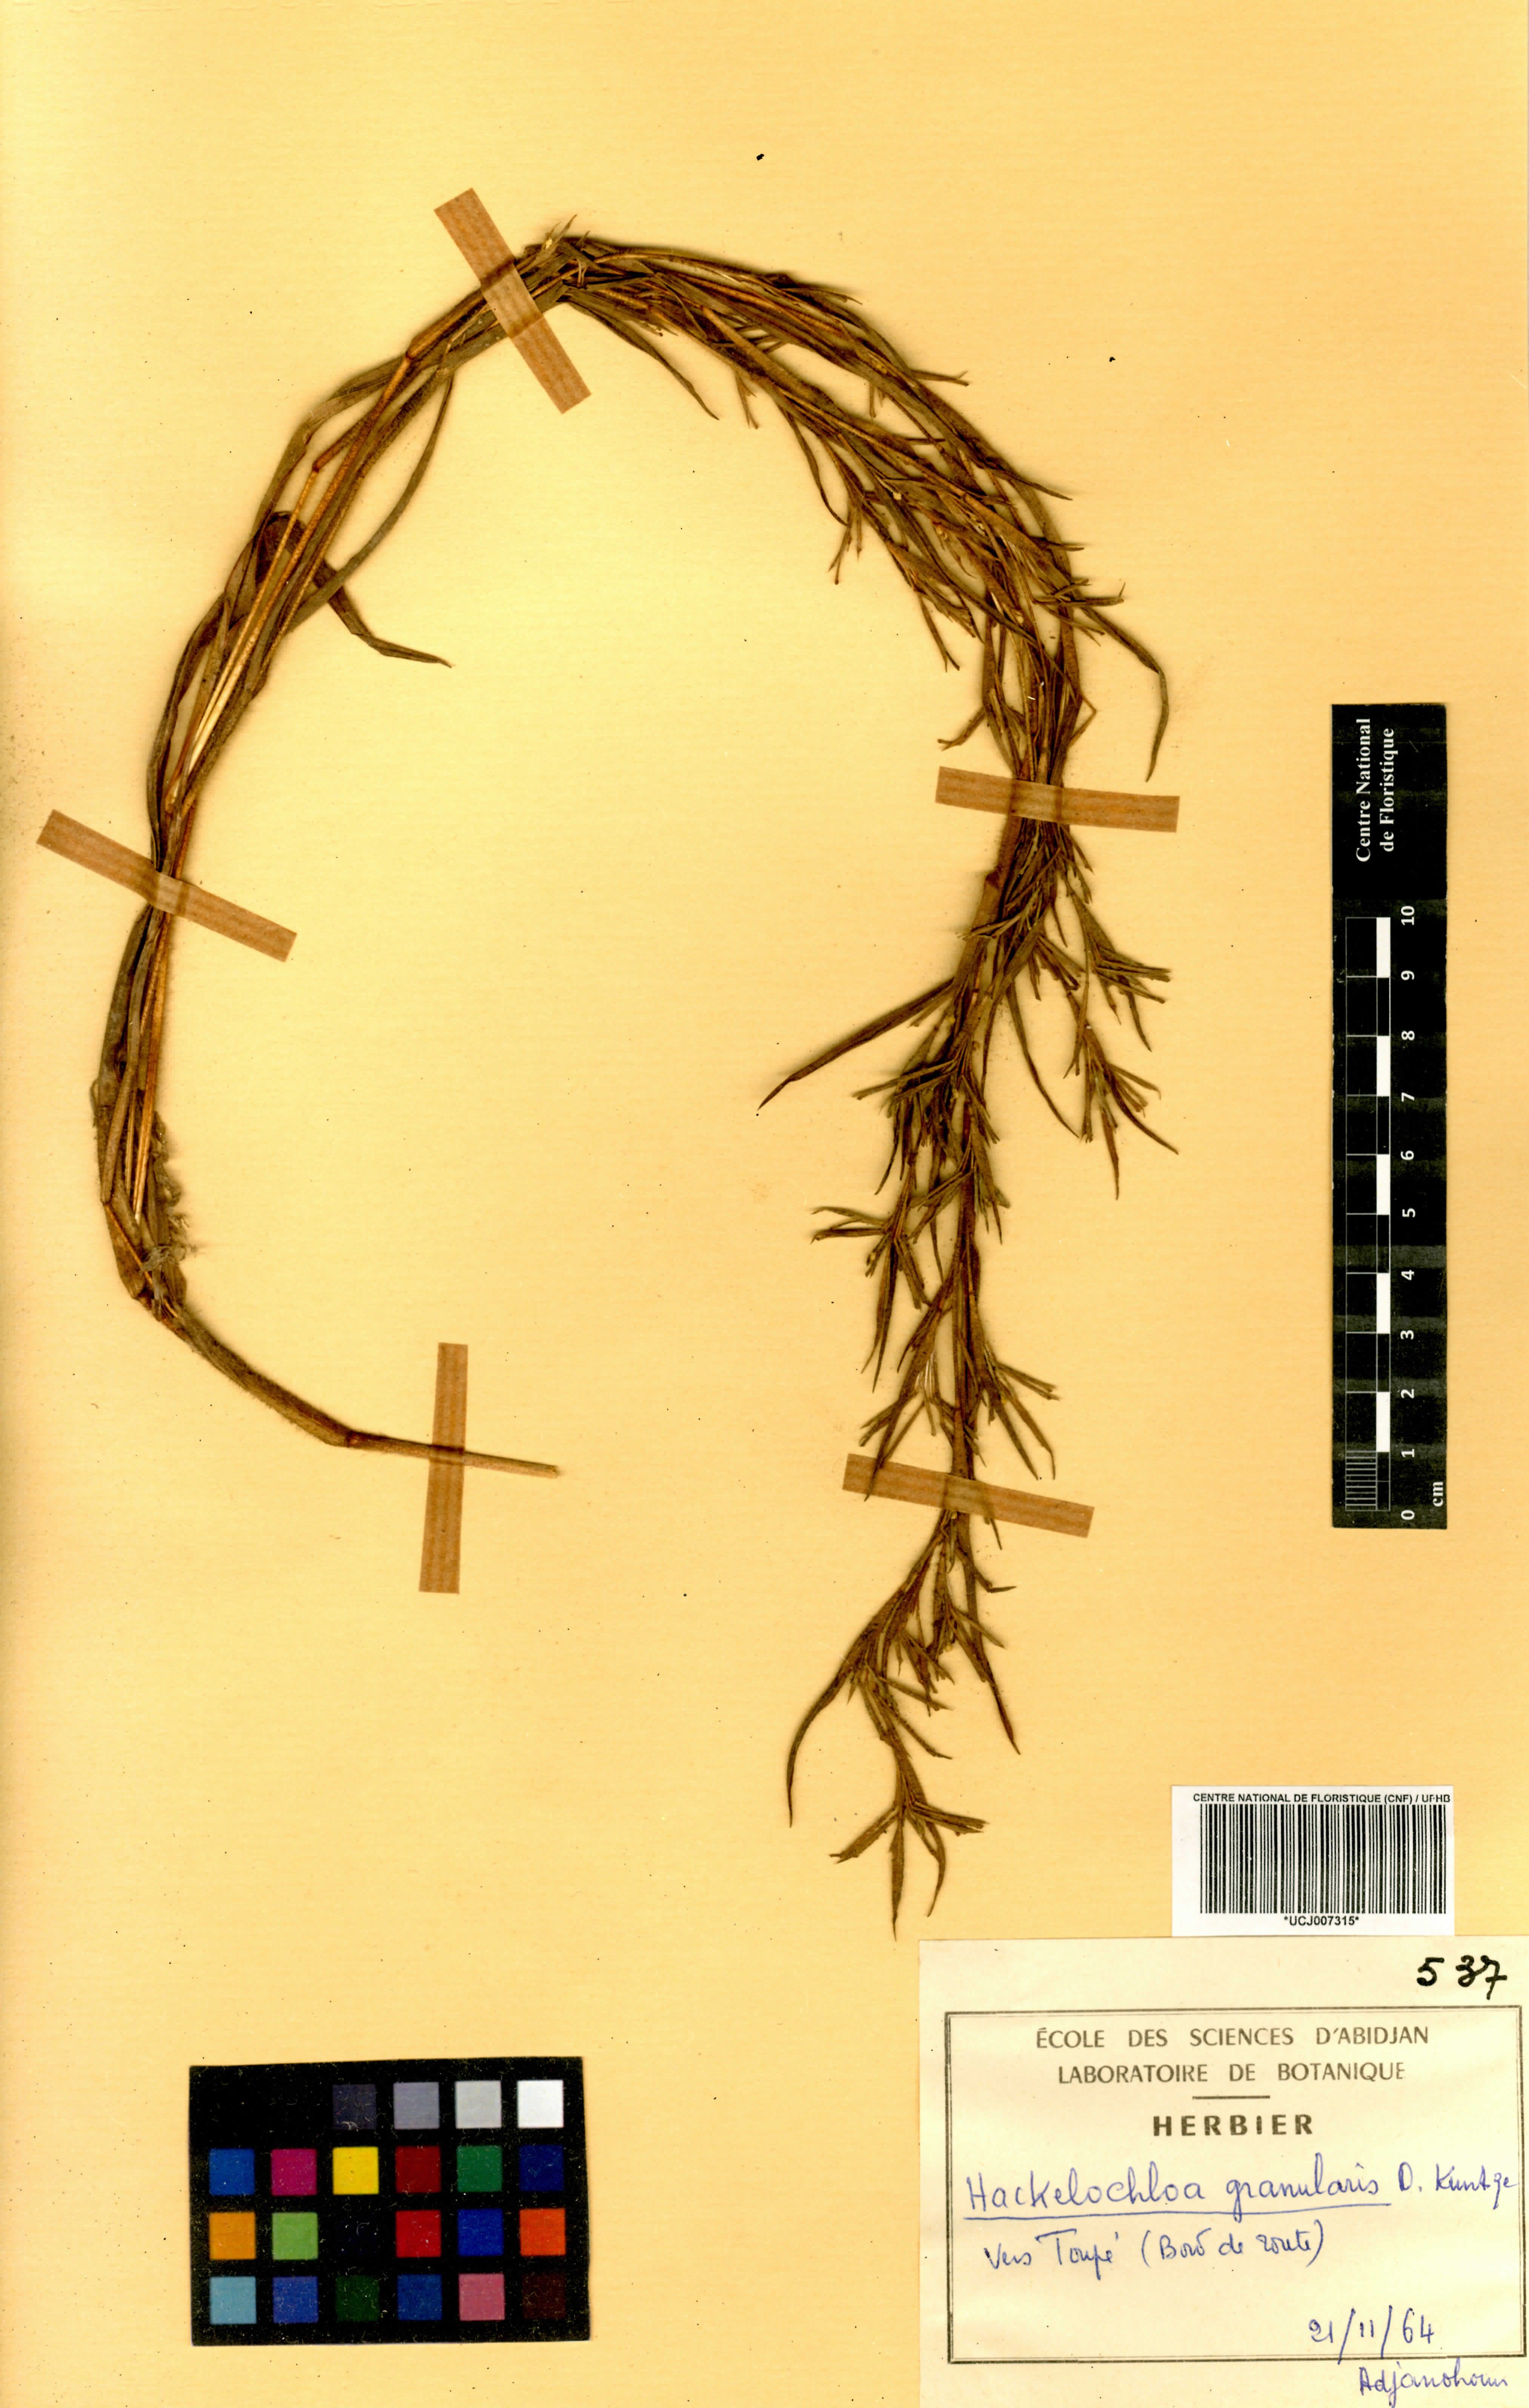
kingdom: Plantae
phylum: Tracheophyta
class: Liliopsida
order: Poales
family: Poaceae
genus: Hackelochloa
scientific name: Hackelochloa granularis
